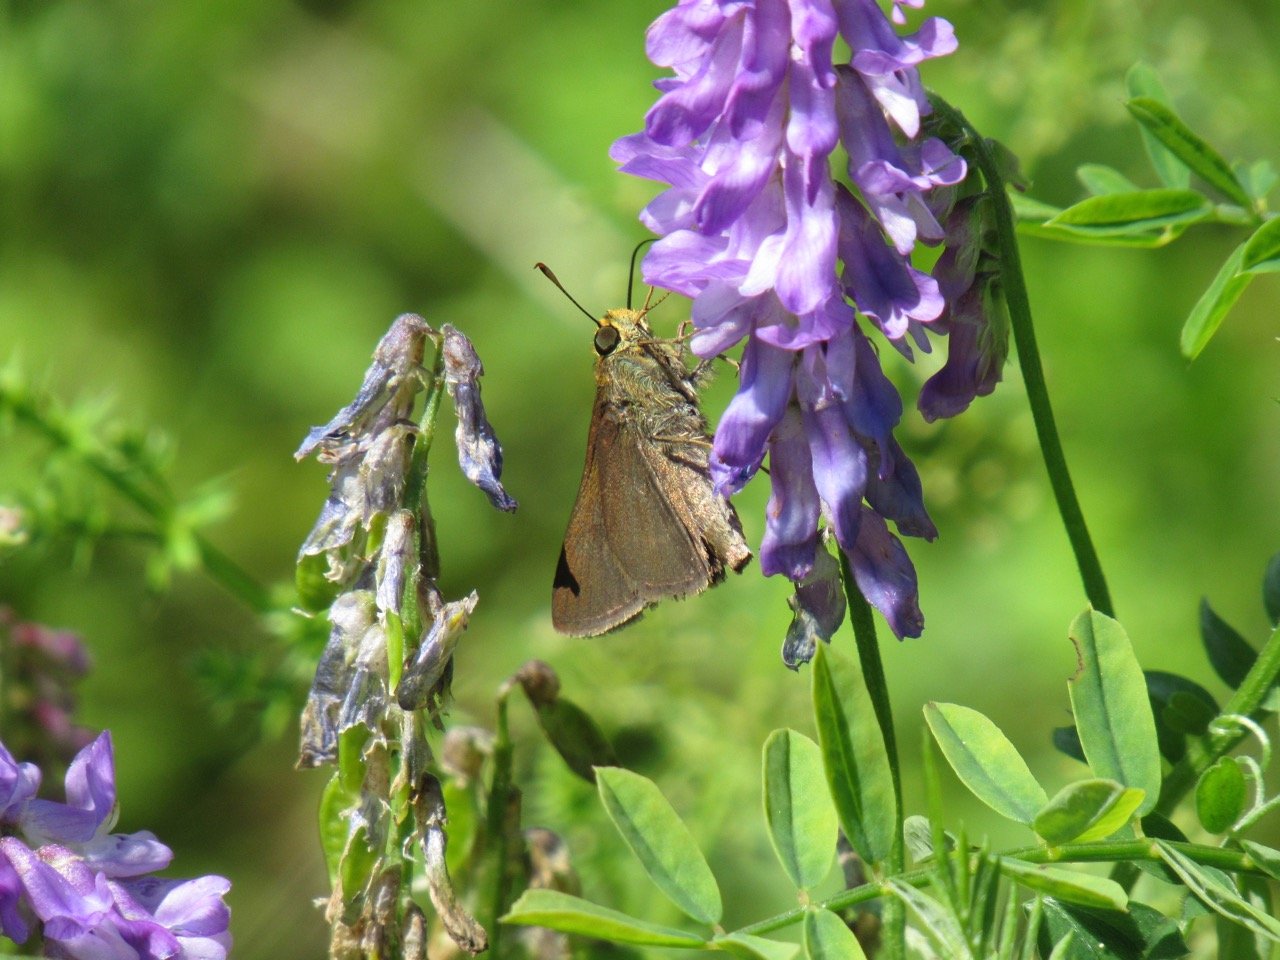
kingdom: Animalia
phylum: Arthropoda
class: Insecta
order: Lepidoptera
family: Hesperiidae
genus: Euphyes
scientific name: Euphyes vestris
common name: Dun Skipper
